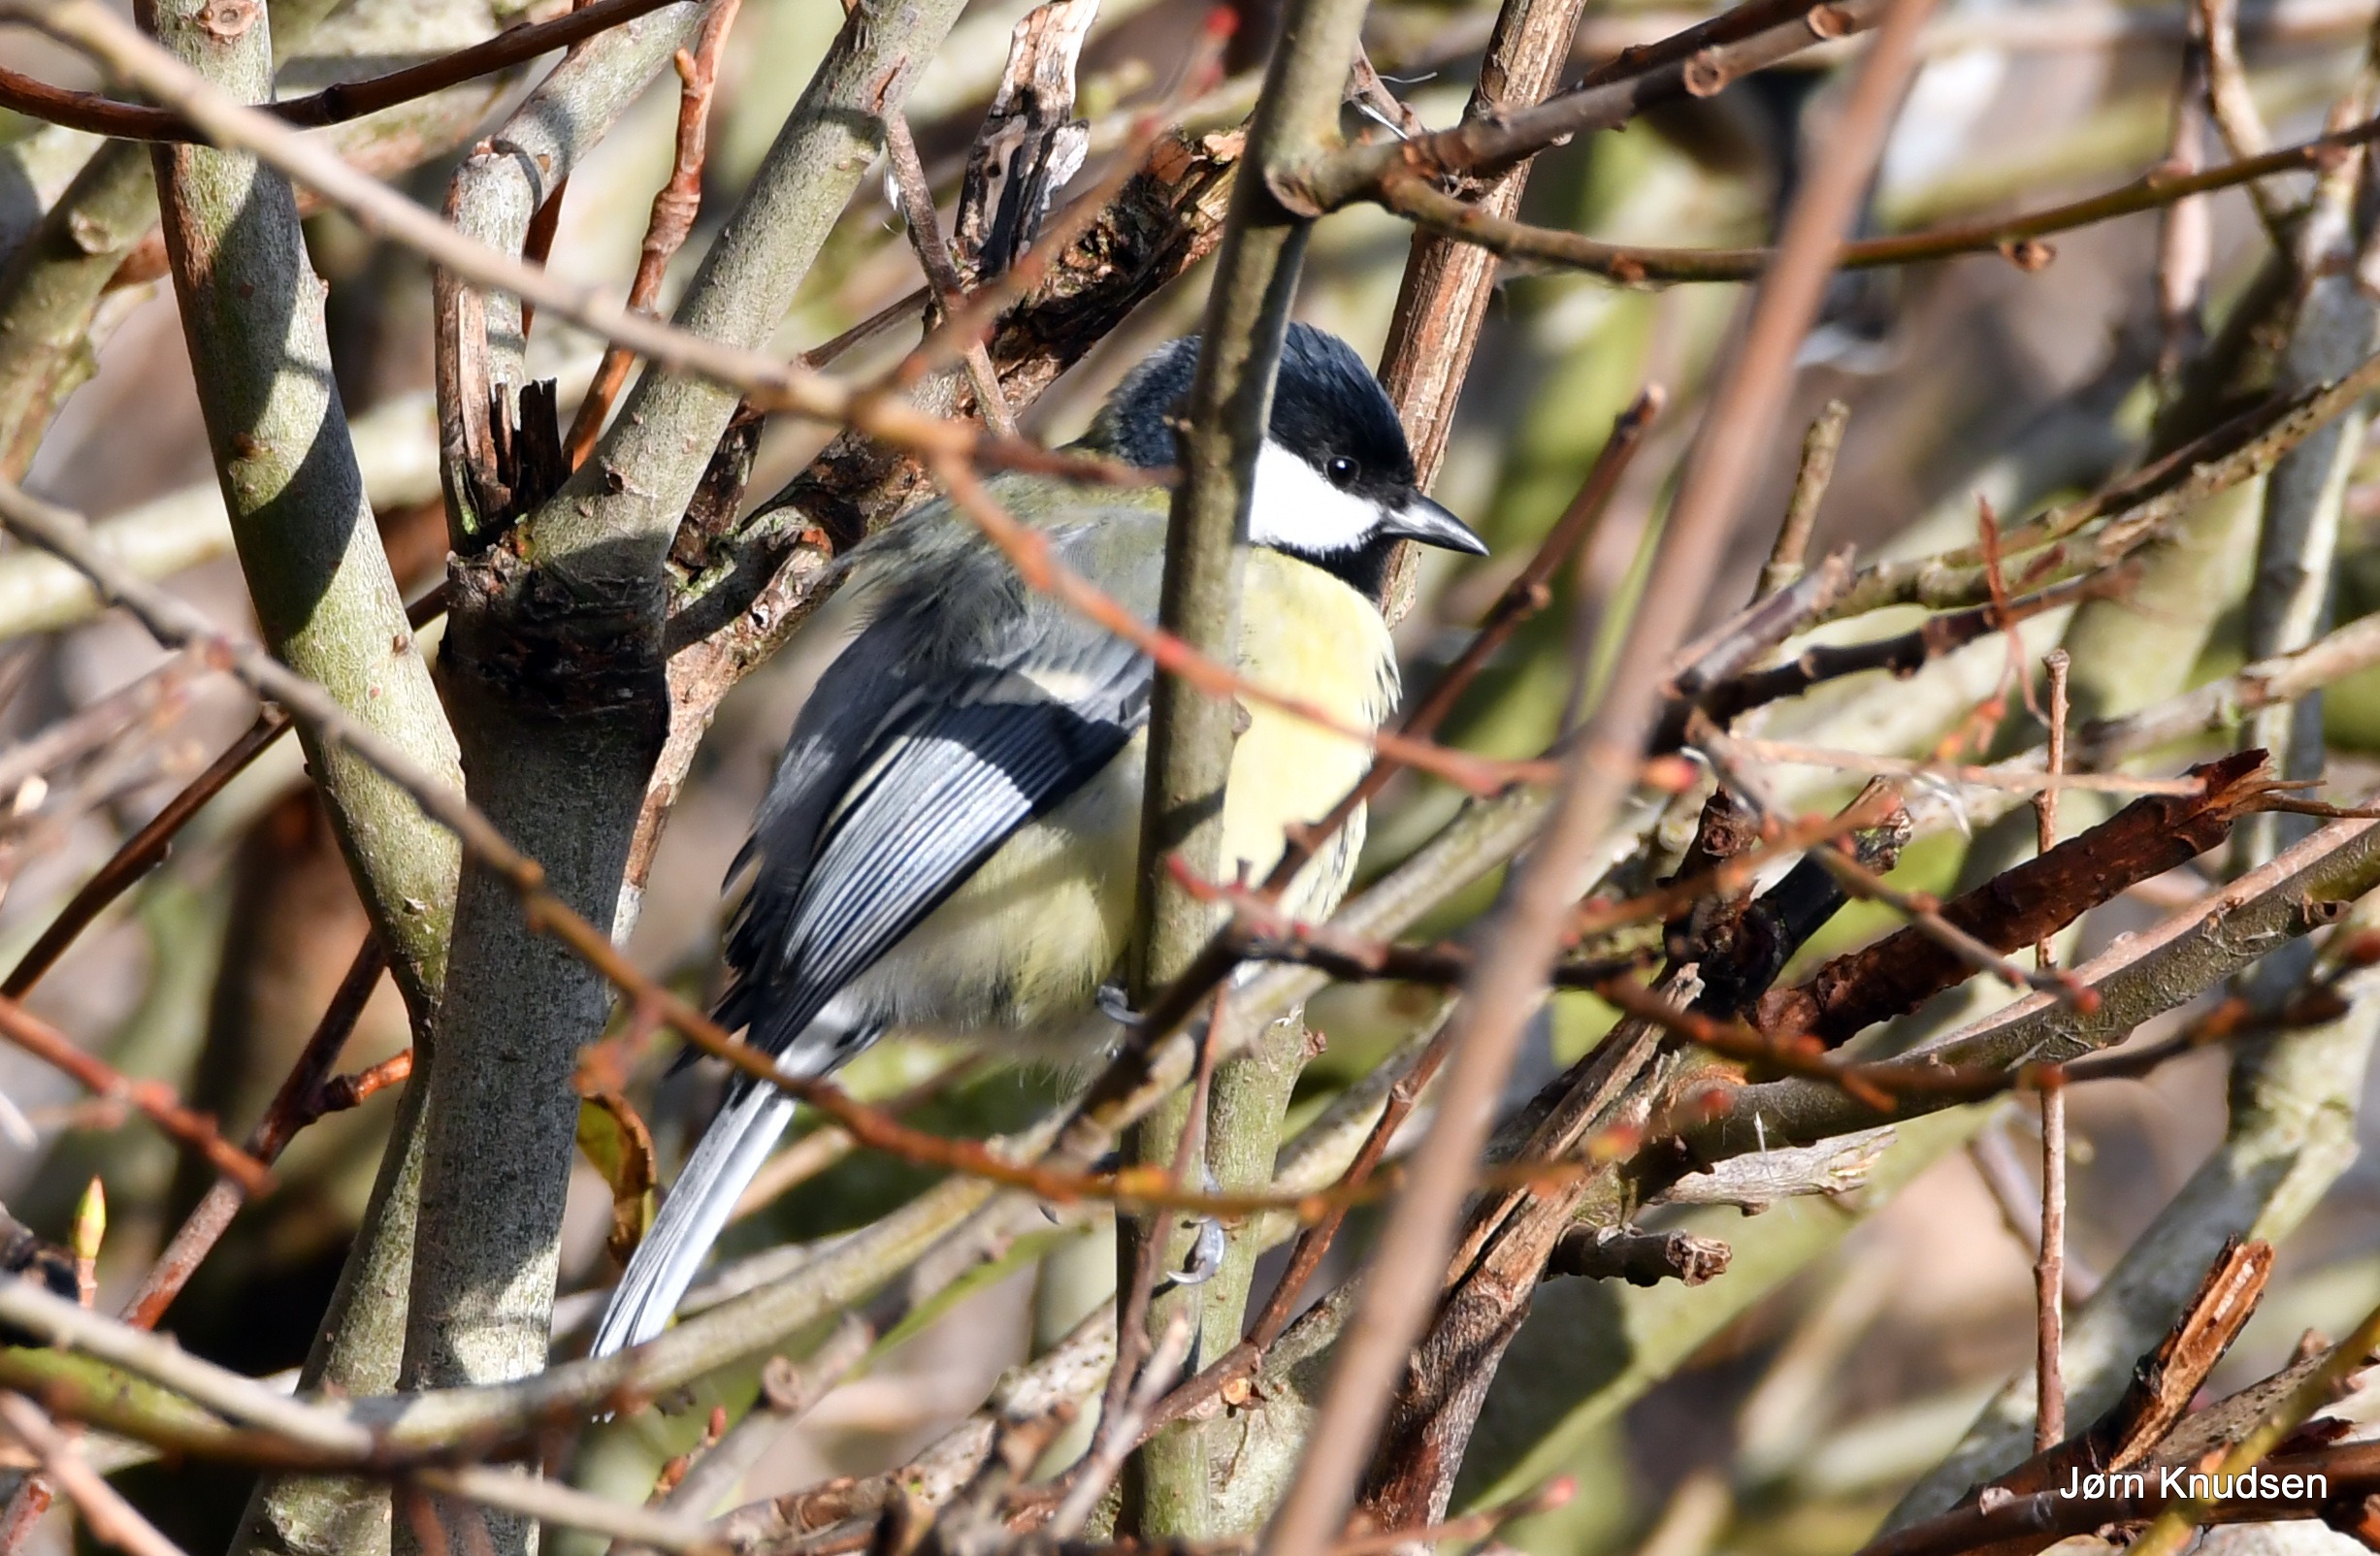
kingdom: Animalia
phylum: Chordata
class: Aves
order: Passeriformes
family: Paridae
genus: Parus
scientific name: Parus major
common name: Musvit
